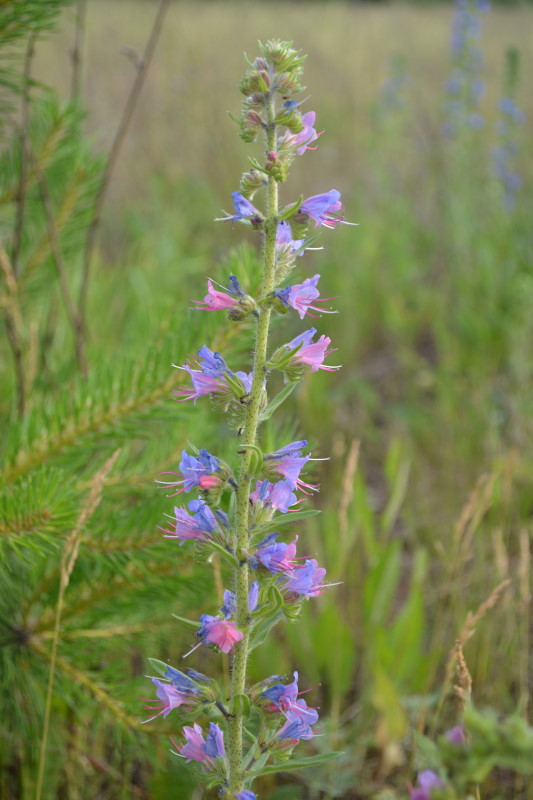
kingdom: Plantae
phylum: Tracheophyta
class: Magnoliopsida
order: Boraginales
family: Boraginaceae
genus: Echium
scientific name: Echium vulgare
